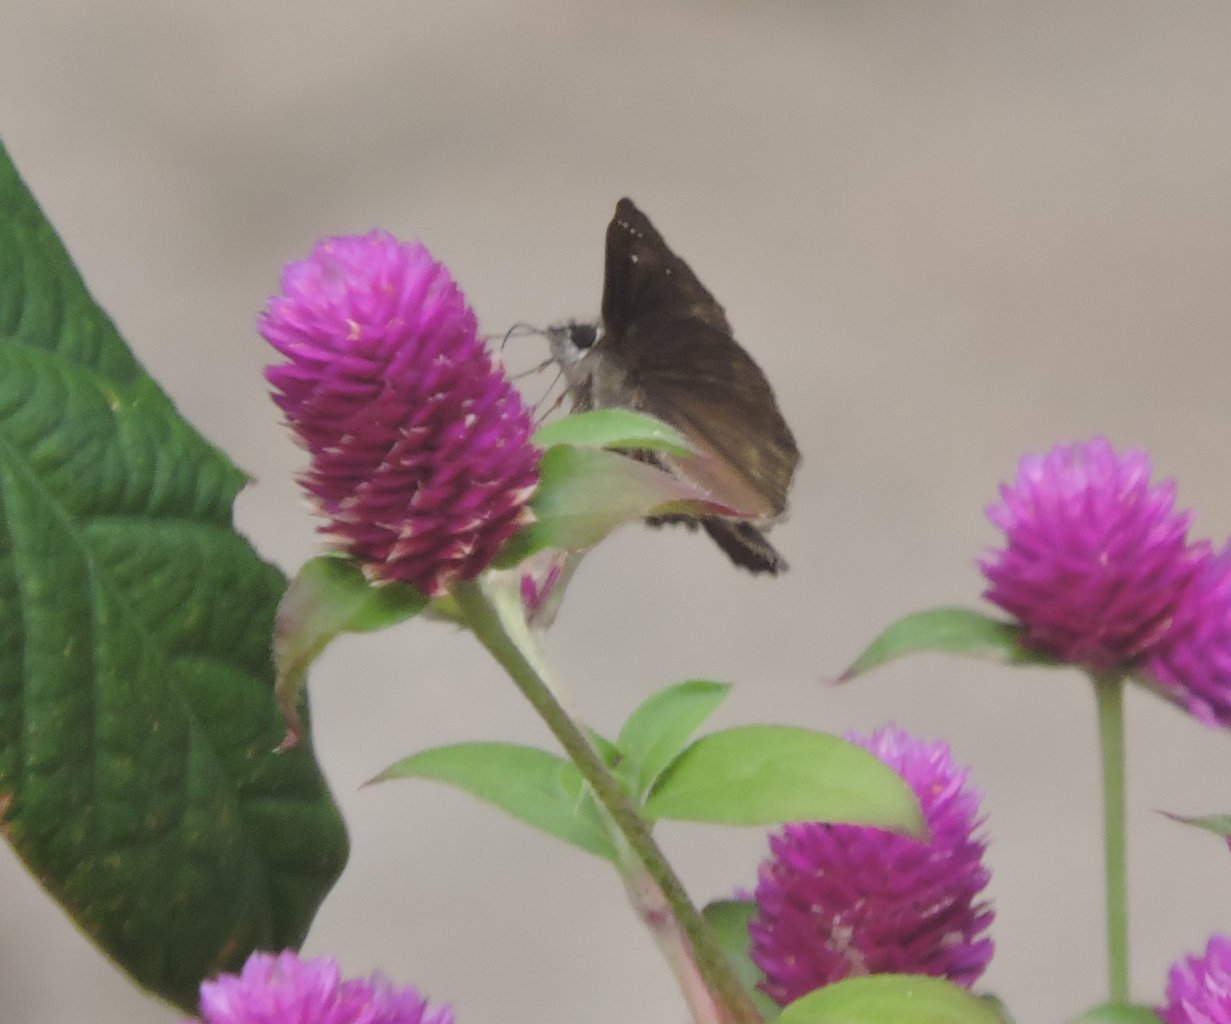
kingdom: Animalia
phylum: Arthropoda
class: Insecta
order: Lepidoptera
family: Hesperiidae
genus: Gesta
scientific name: Gesta
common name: Horace's Duskywing
